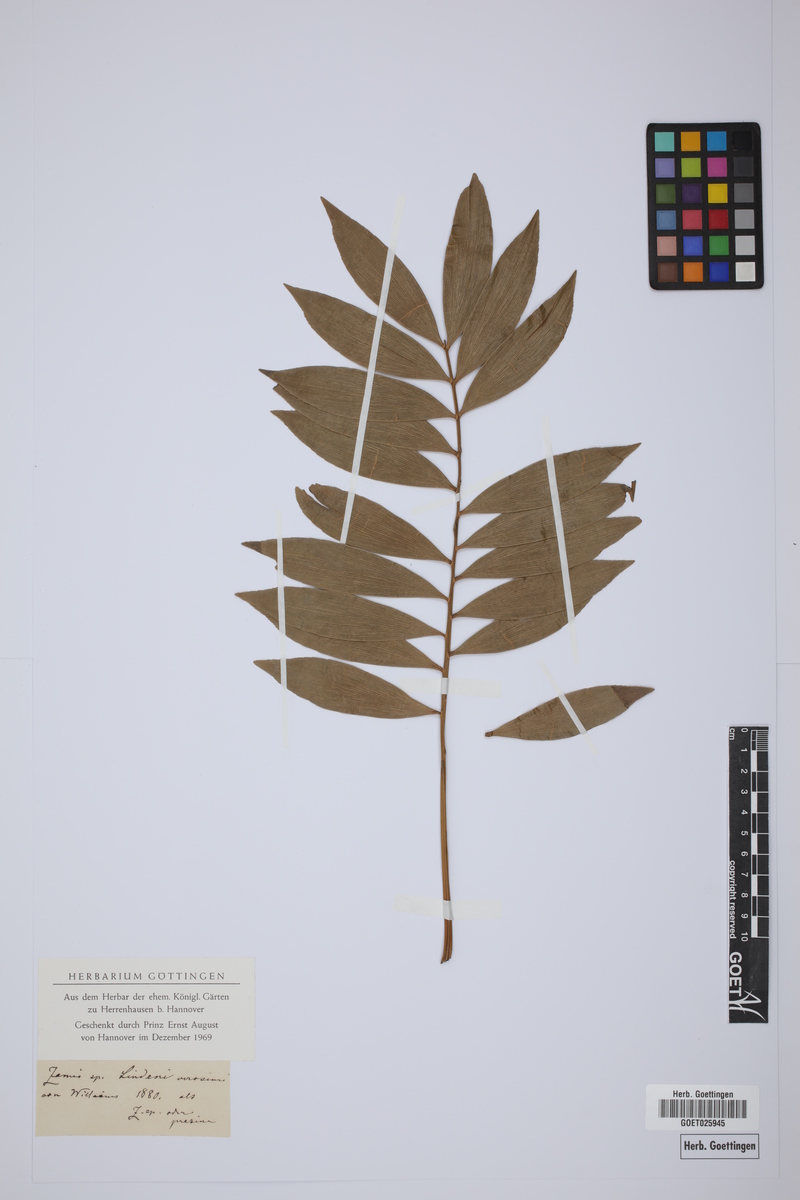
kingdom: Plantae
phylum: Tracheophyta
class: Cycadopsida
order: Cycadales
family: Zamiaceae
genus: Zamia
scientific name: Zamia prasina
